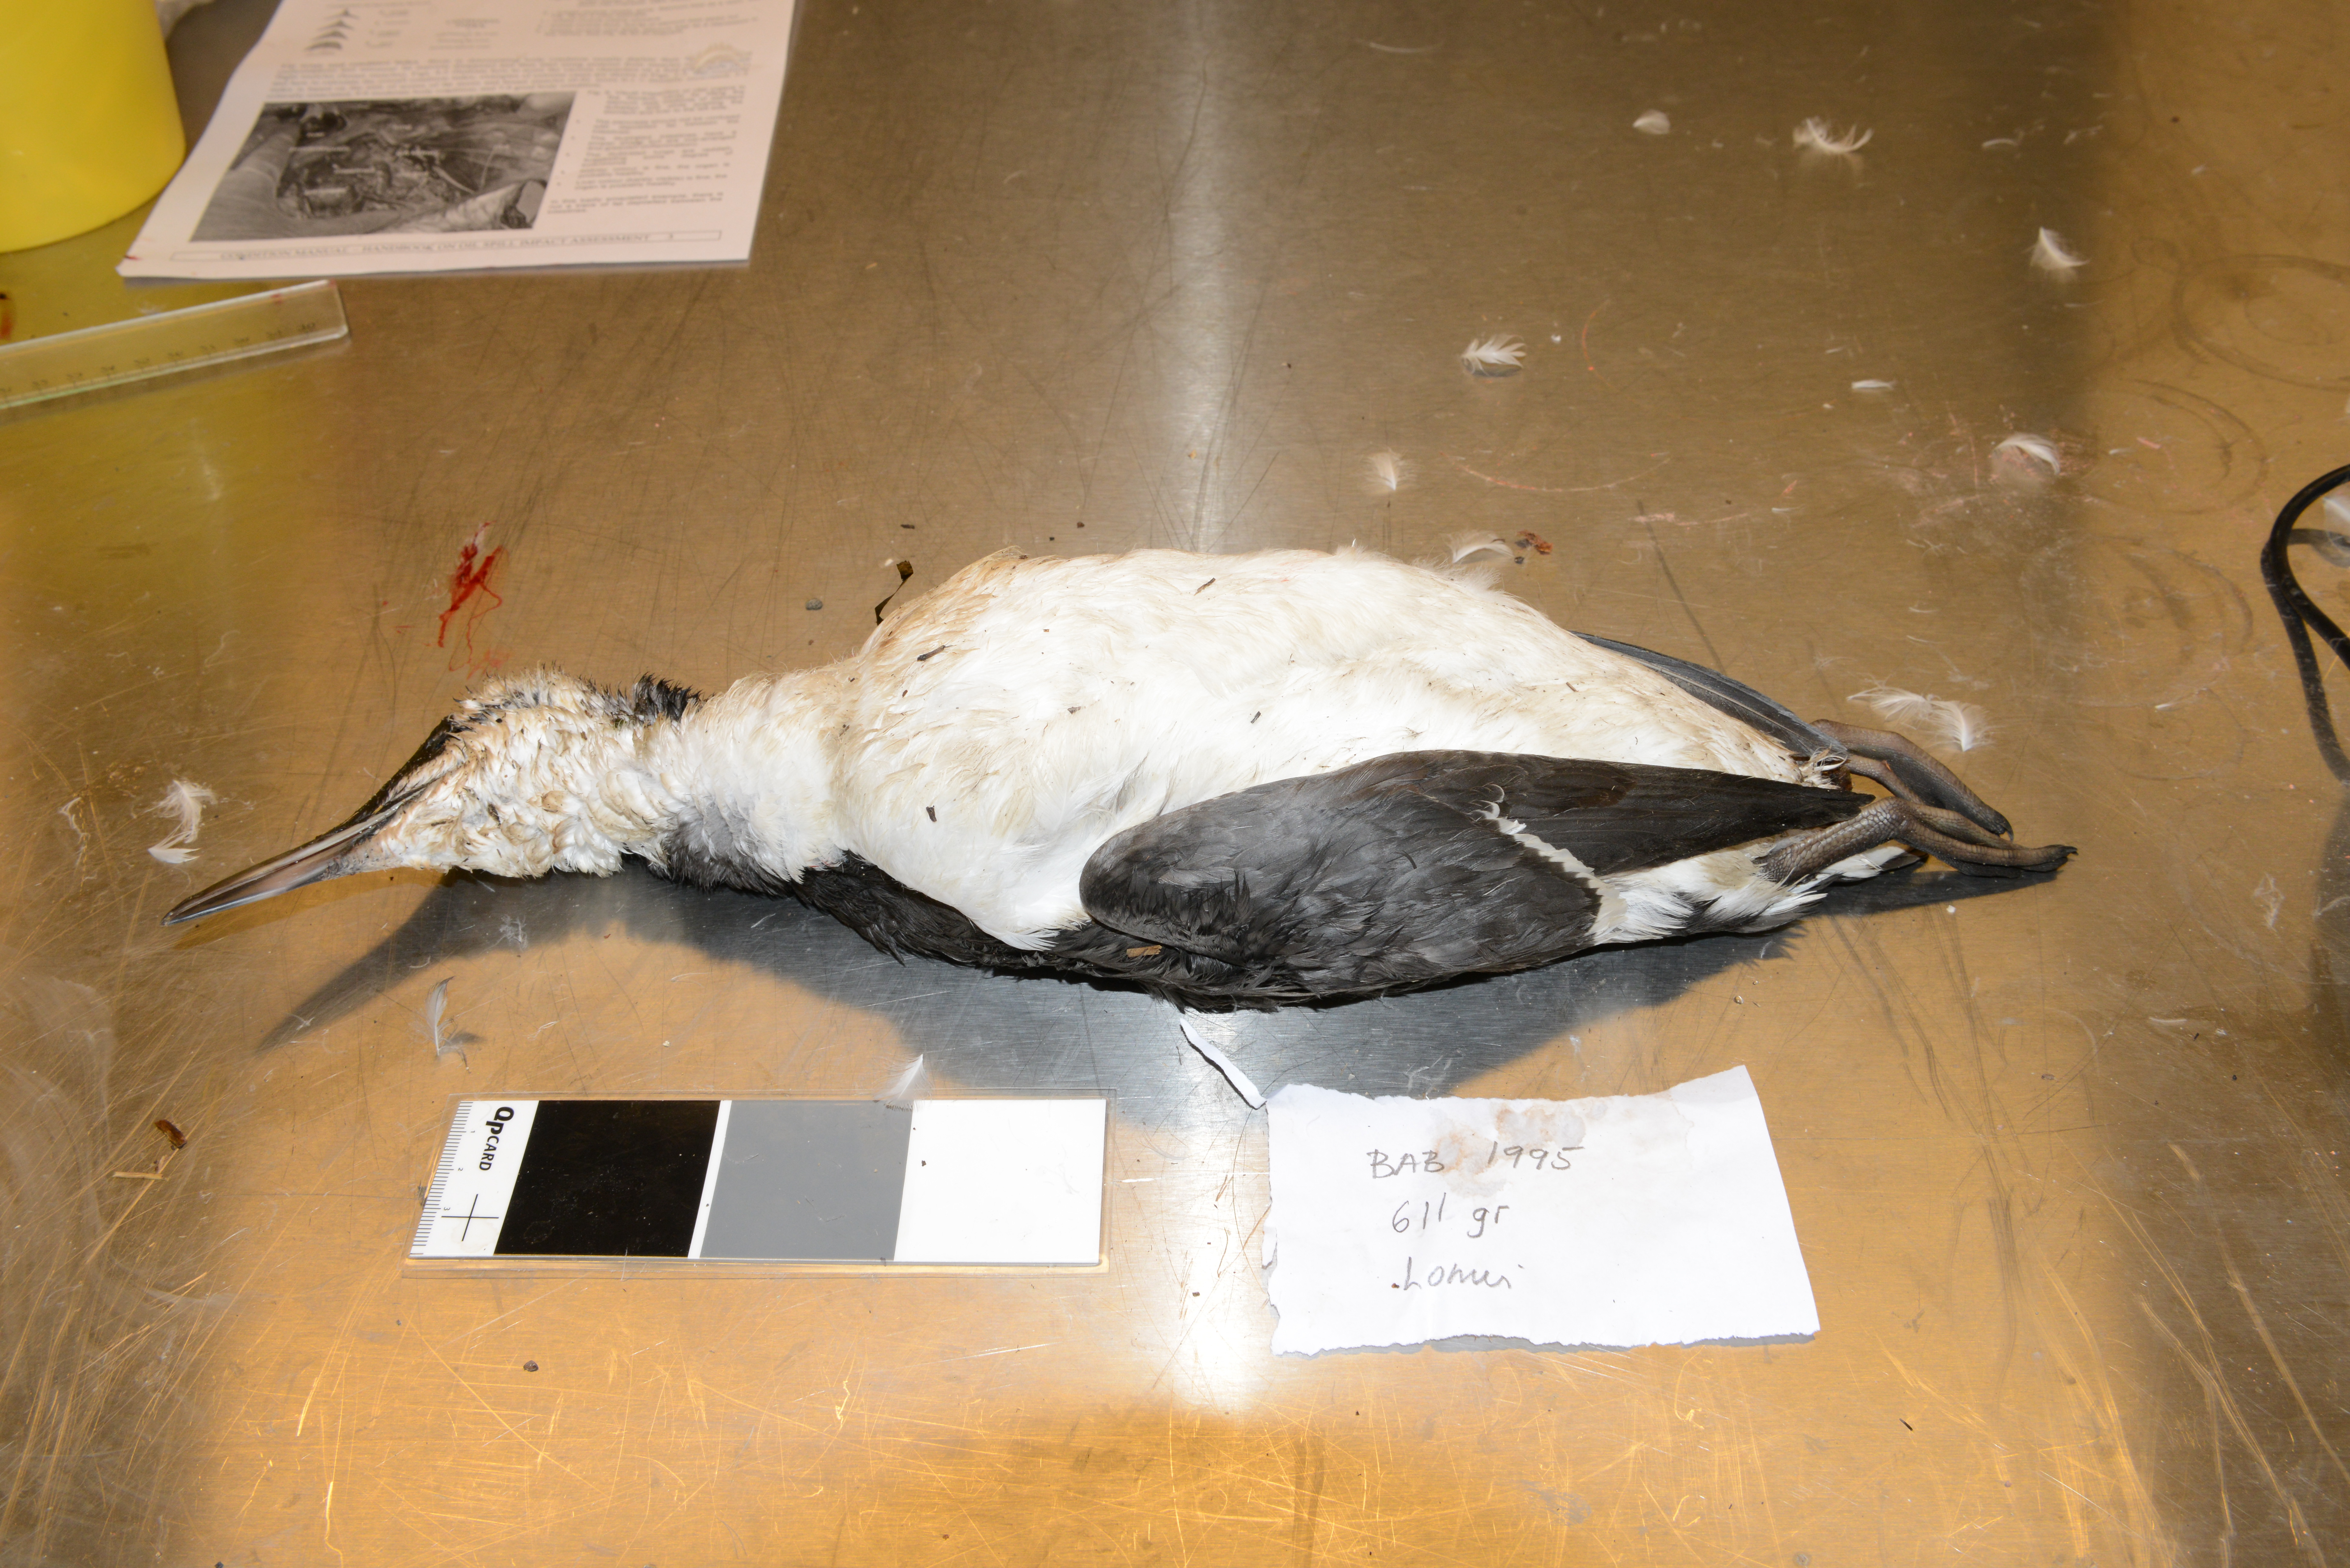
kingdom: Animalia
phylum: Chordata
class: Aves
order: Charadriiformes
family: Alcidae
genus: Uria
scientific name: Uria aalge
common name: Common murre
